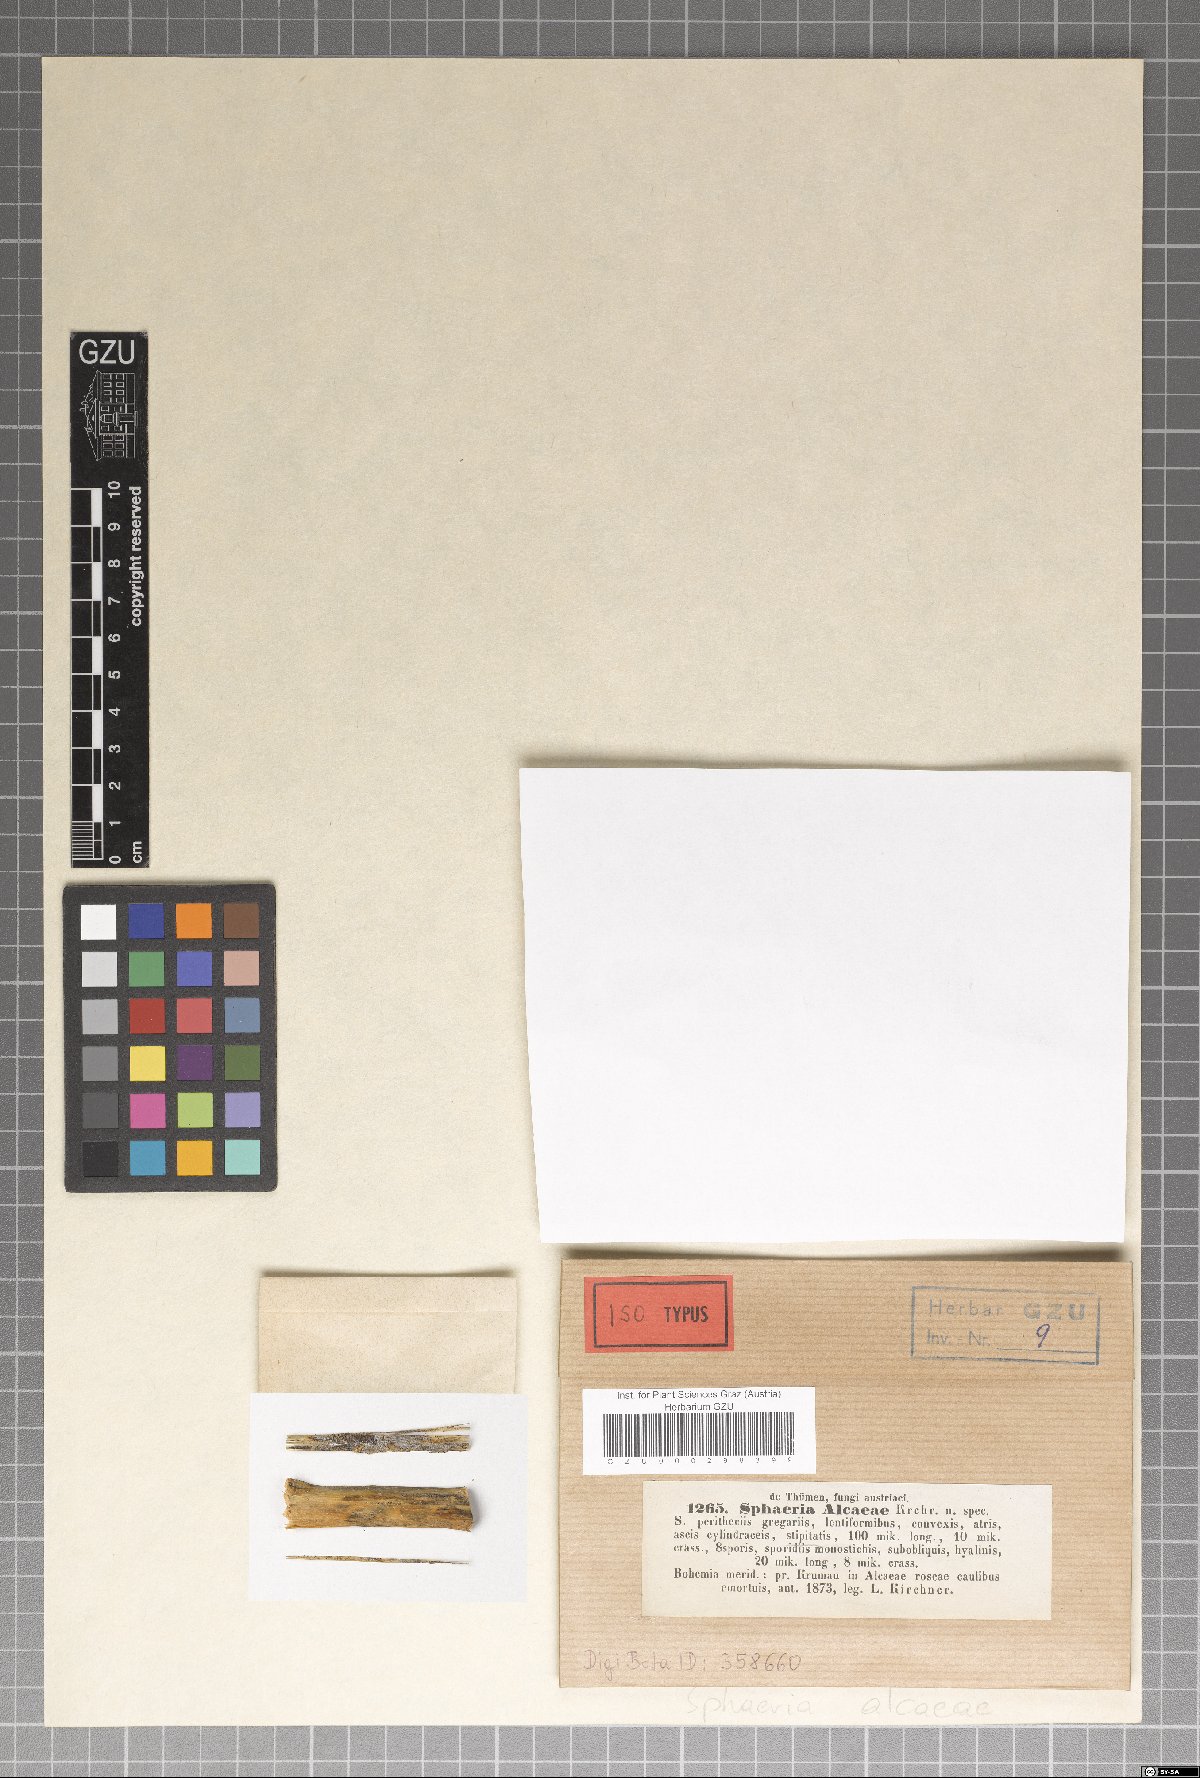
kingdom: Fungi
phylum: Ascomycota
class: Sordariomycetes
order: Xylariales
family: Xylariaceae
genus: Sphaeria
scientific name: Sphaeria
